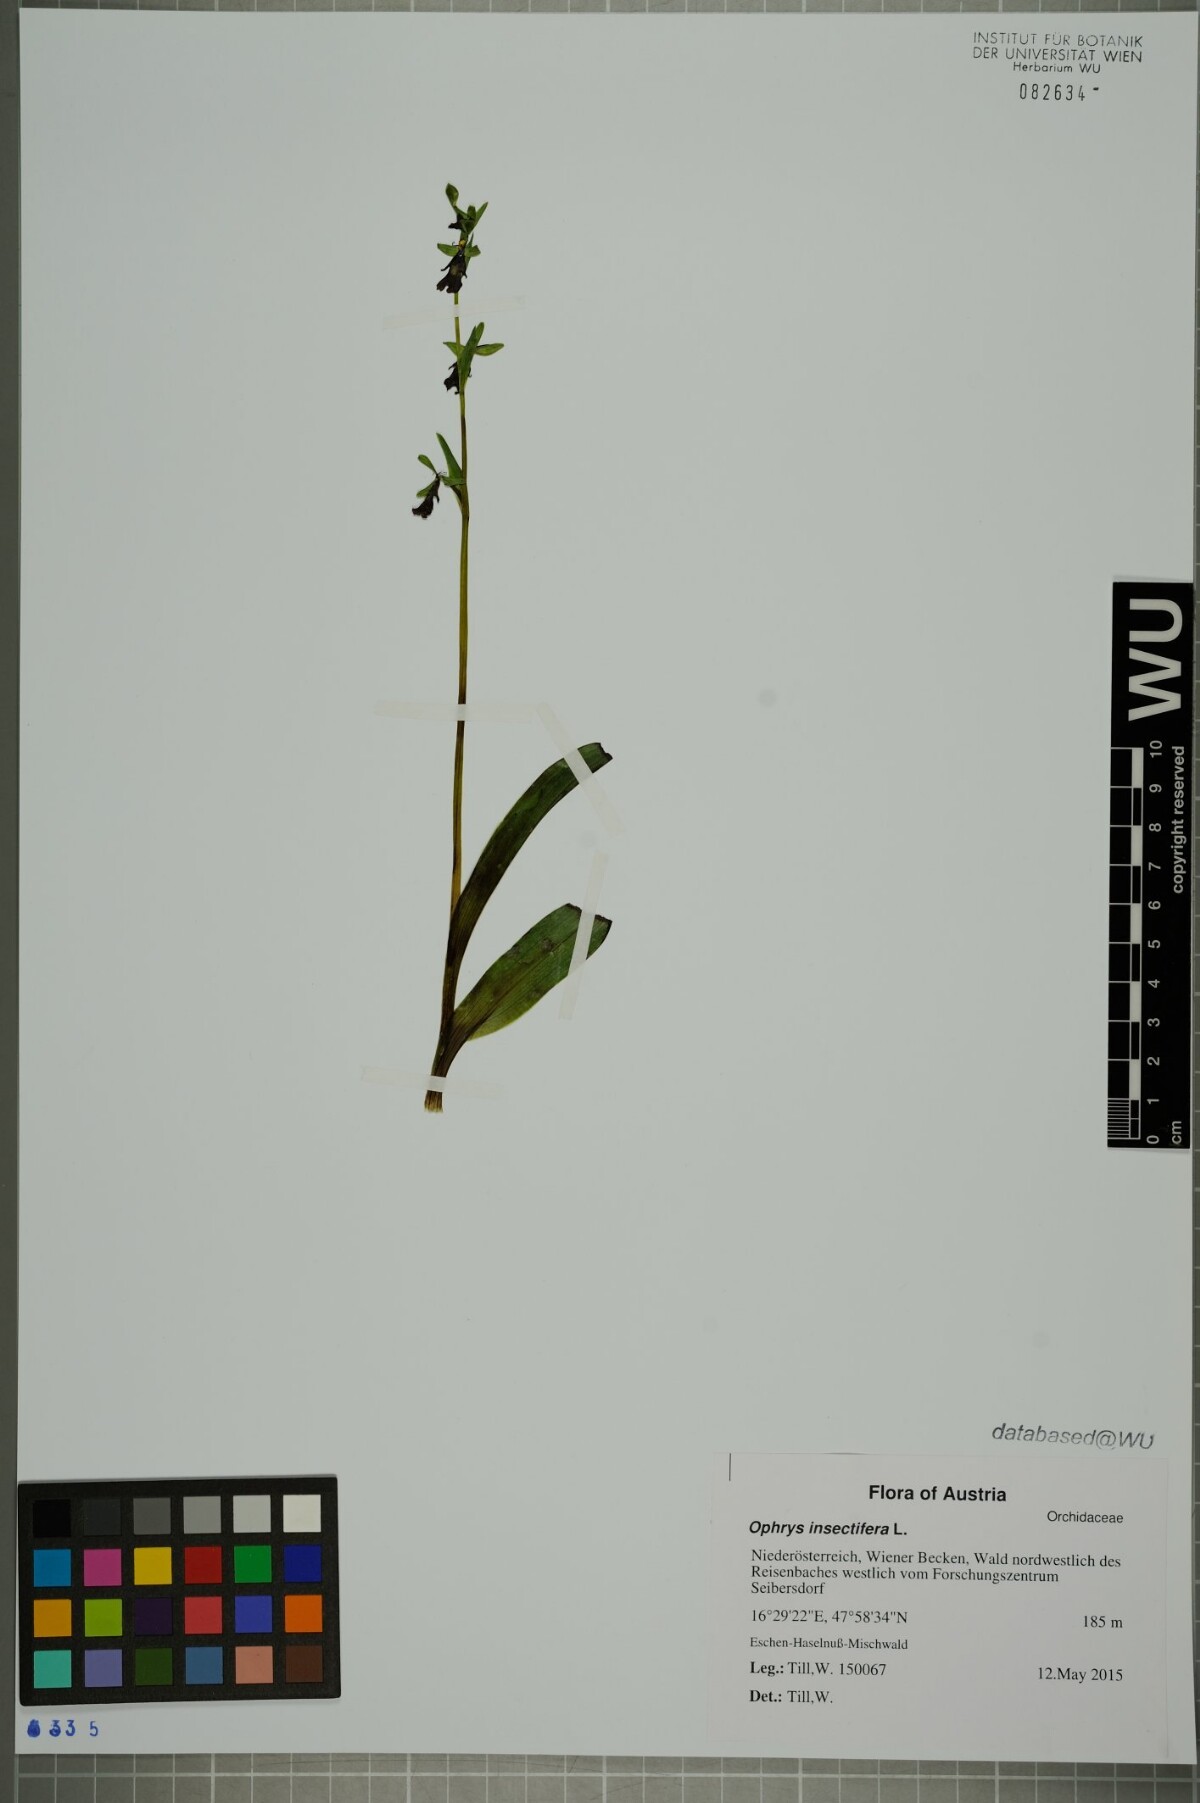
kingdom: Plantae
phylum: Tracheophyta
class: Liliopsida
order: Asparagales
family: Orchidaceae
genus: Ophrys
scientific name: Ophrys insectifera
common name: Fly orchid
